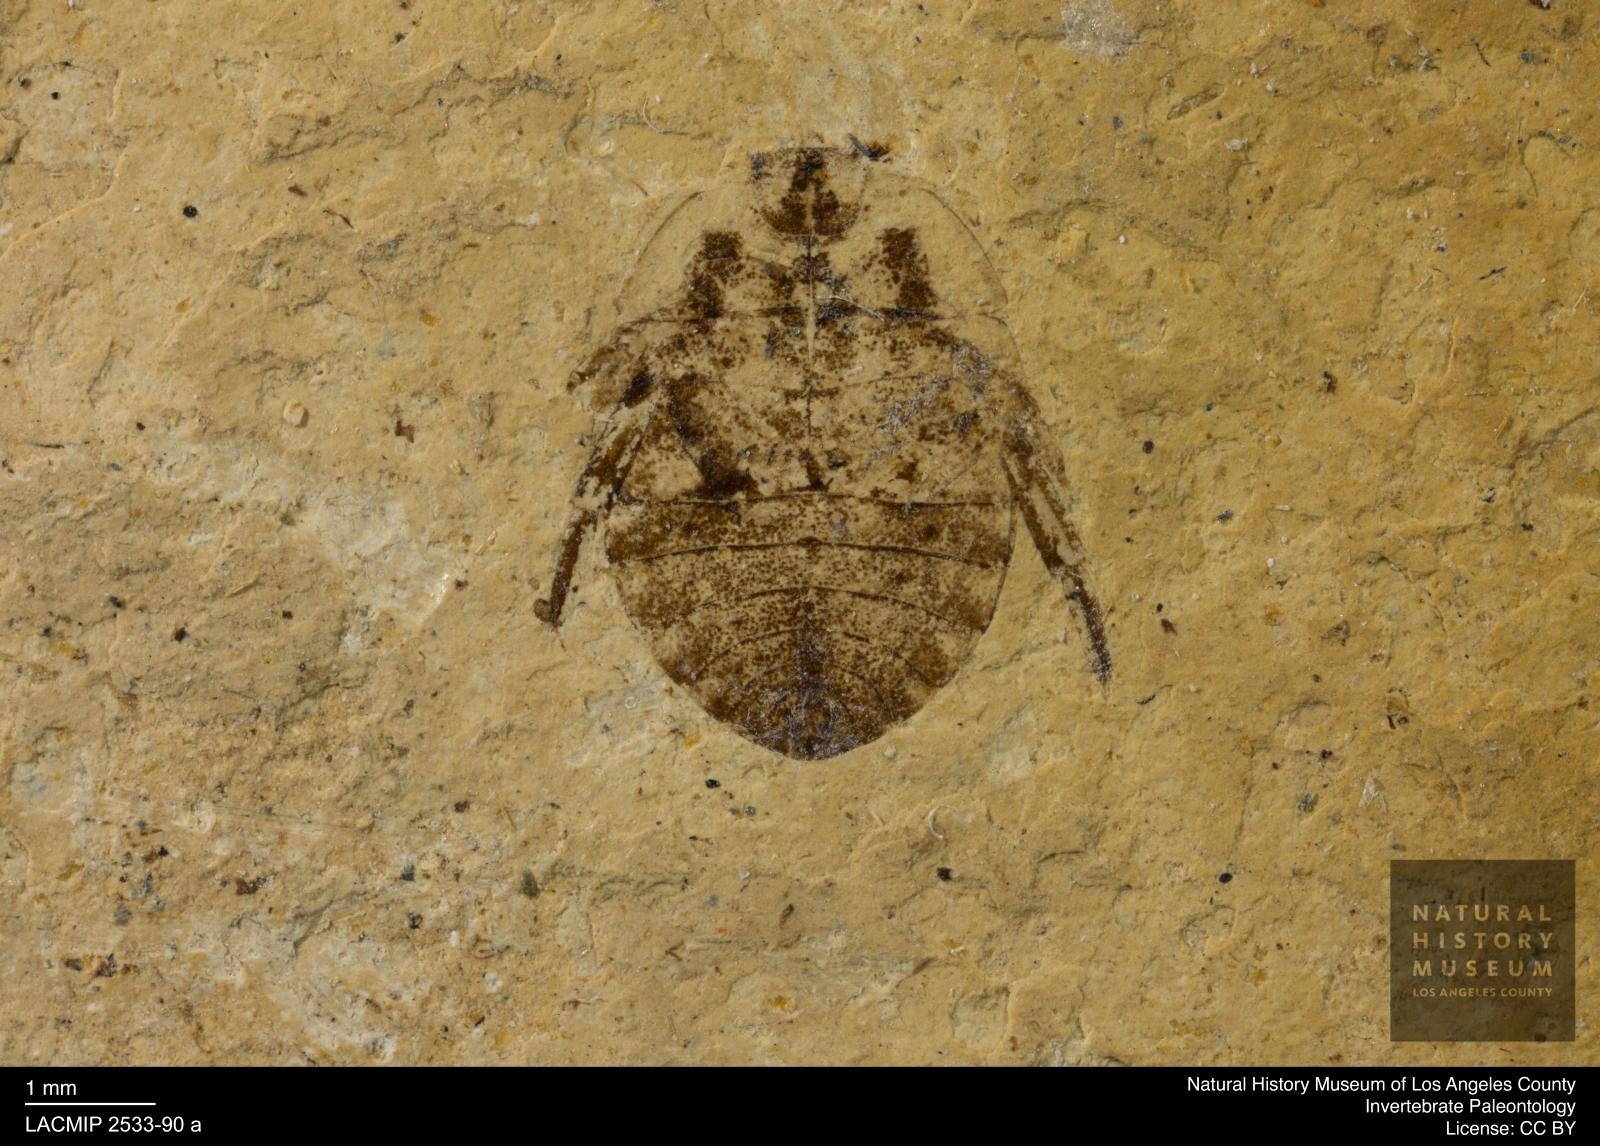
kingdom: Animalia
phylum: Arthropoda
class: Insecta
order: Hemiptera
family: Naucoridae
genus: Naucoris
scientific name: Naucoris rottensis
